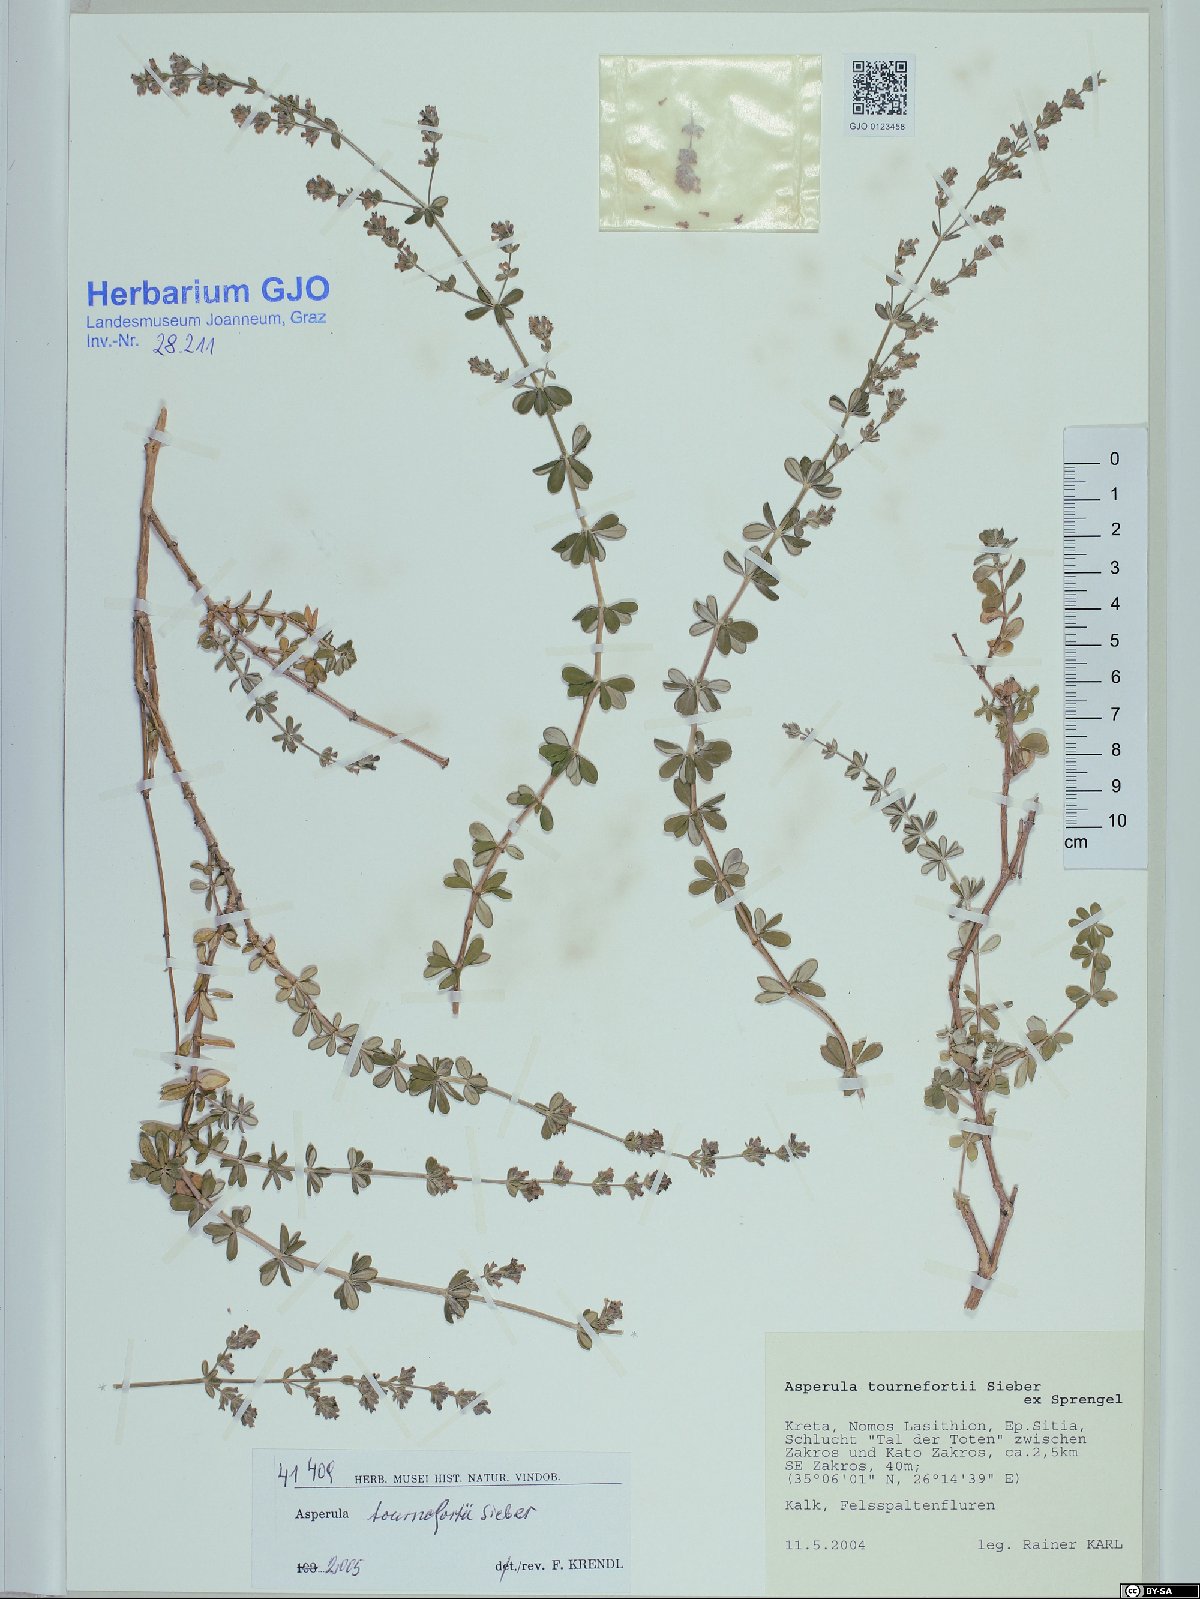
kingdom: Plantae
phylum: Tracheophyta
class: Magnoliopsida
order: Gentianales
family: Rubiaceae
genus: Asperula
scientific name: Asperula tournefortii
